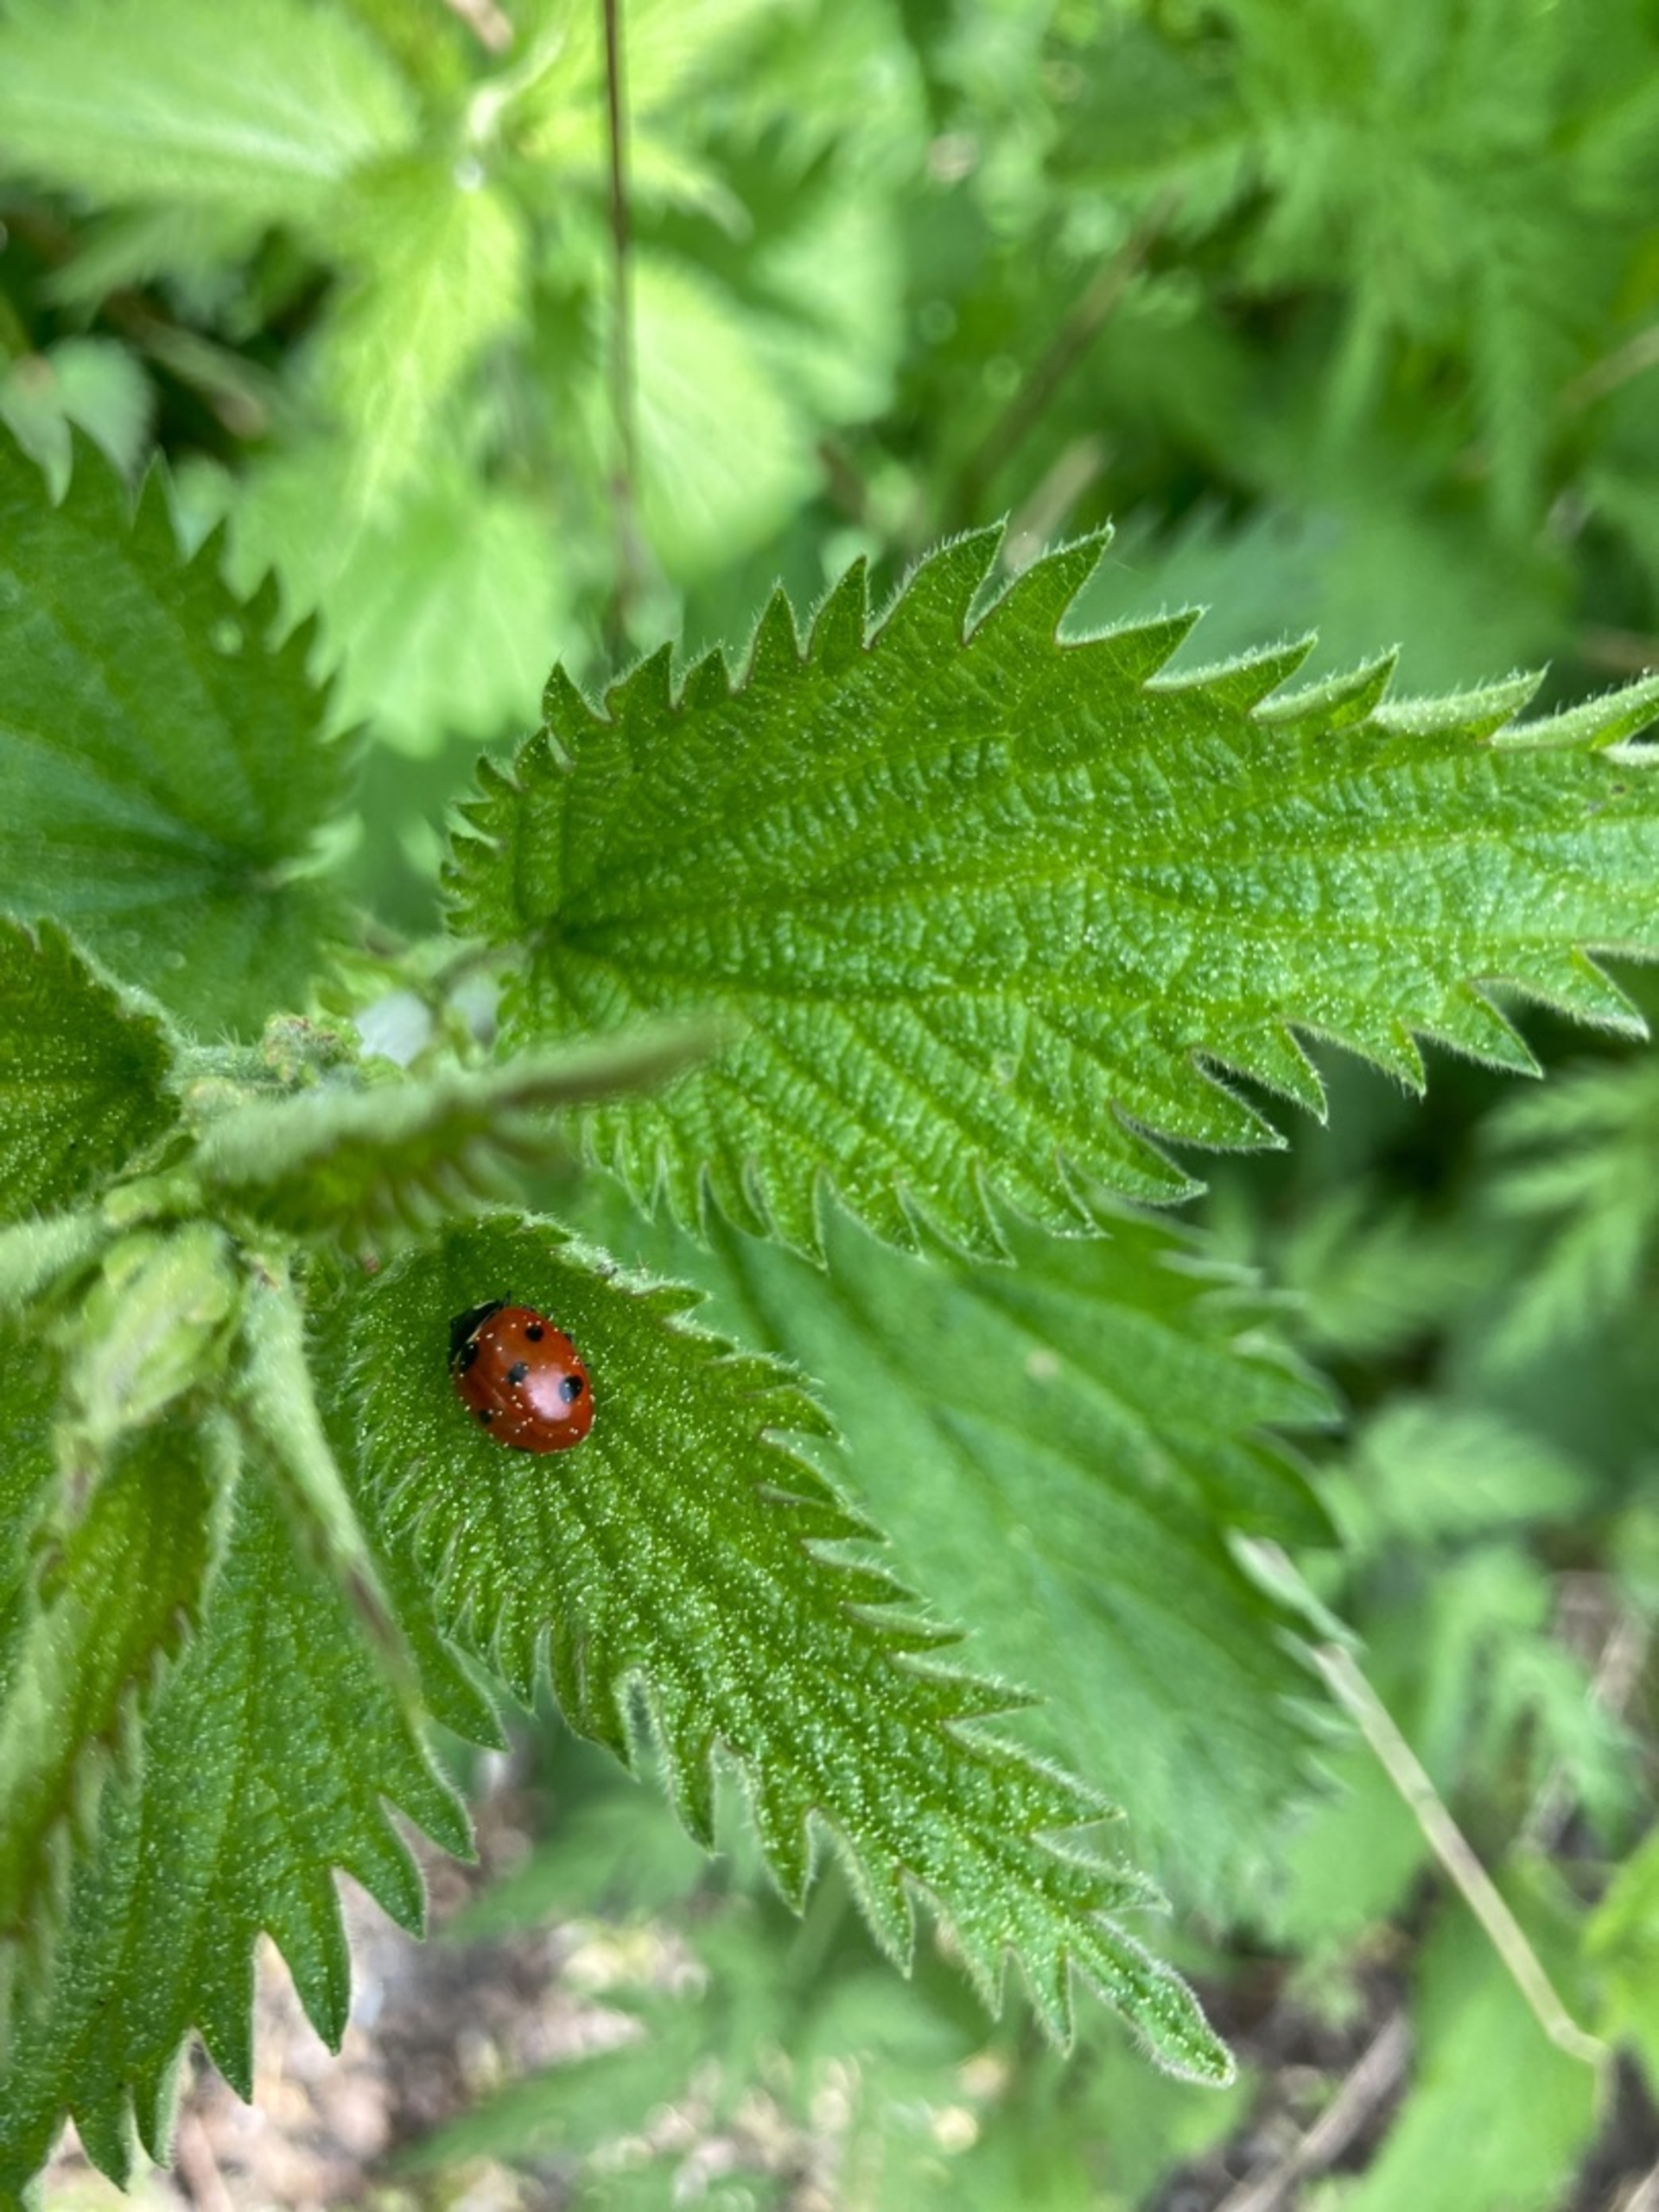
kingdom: Animalia
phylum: Arthropoda
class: Insecta
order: Coleoptera
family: Coccinellidae
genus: Coccinella
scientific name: Coccinella septempunctata
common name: Syvplettet mariehøne
